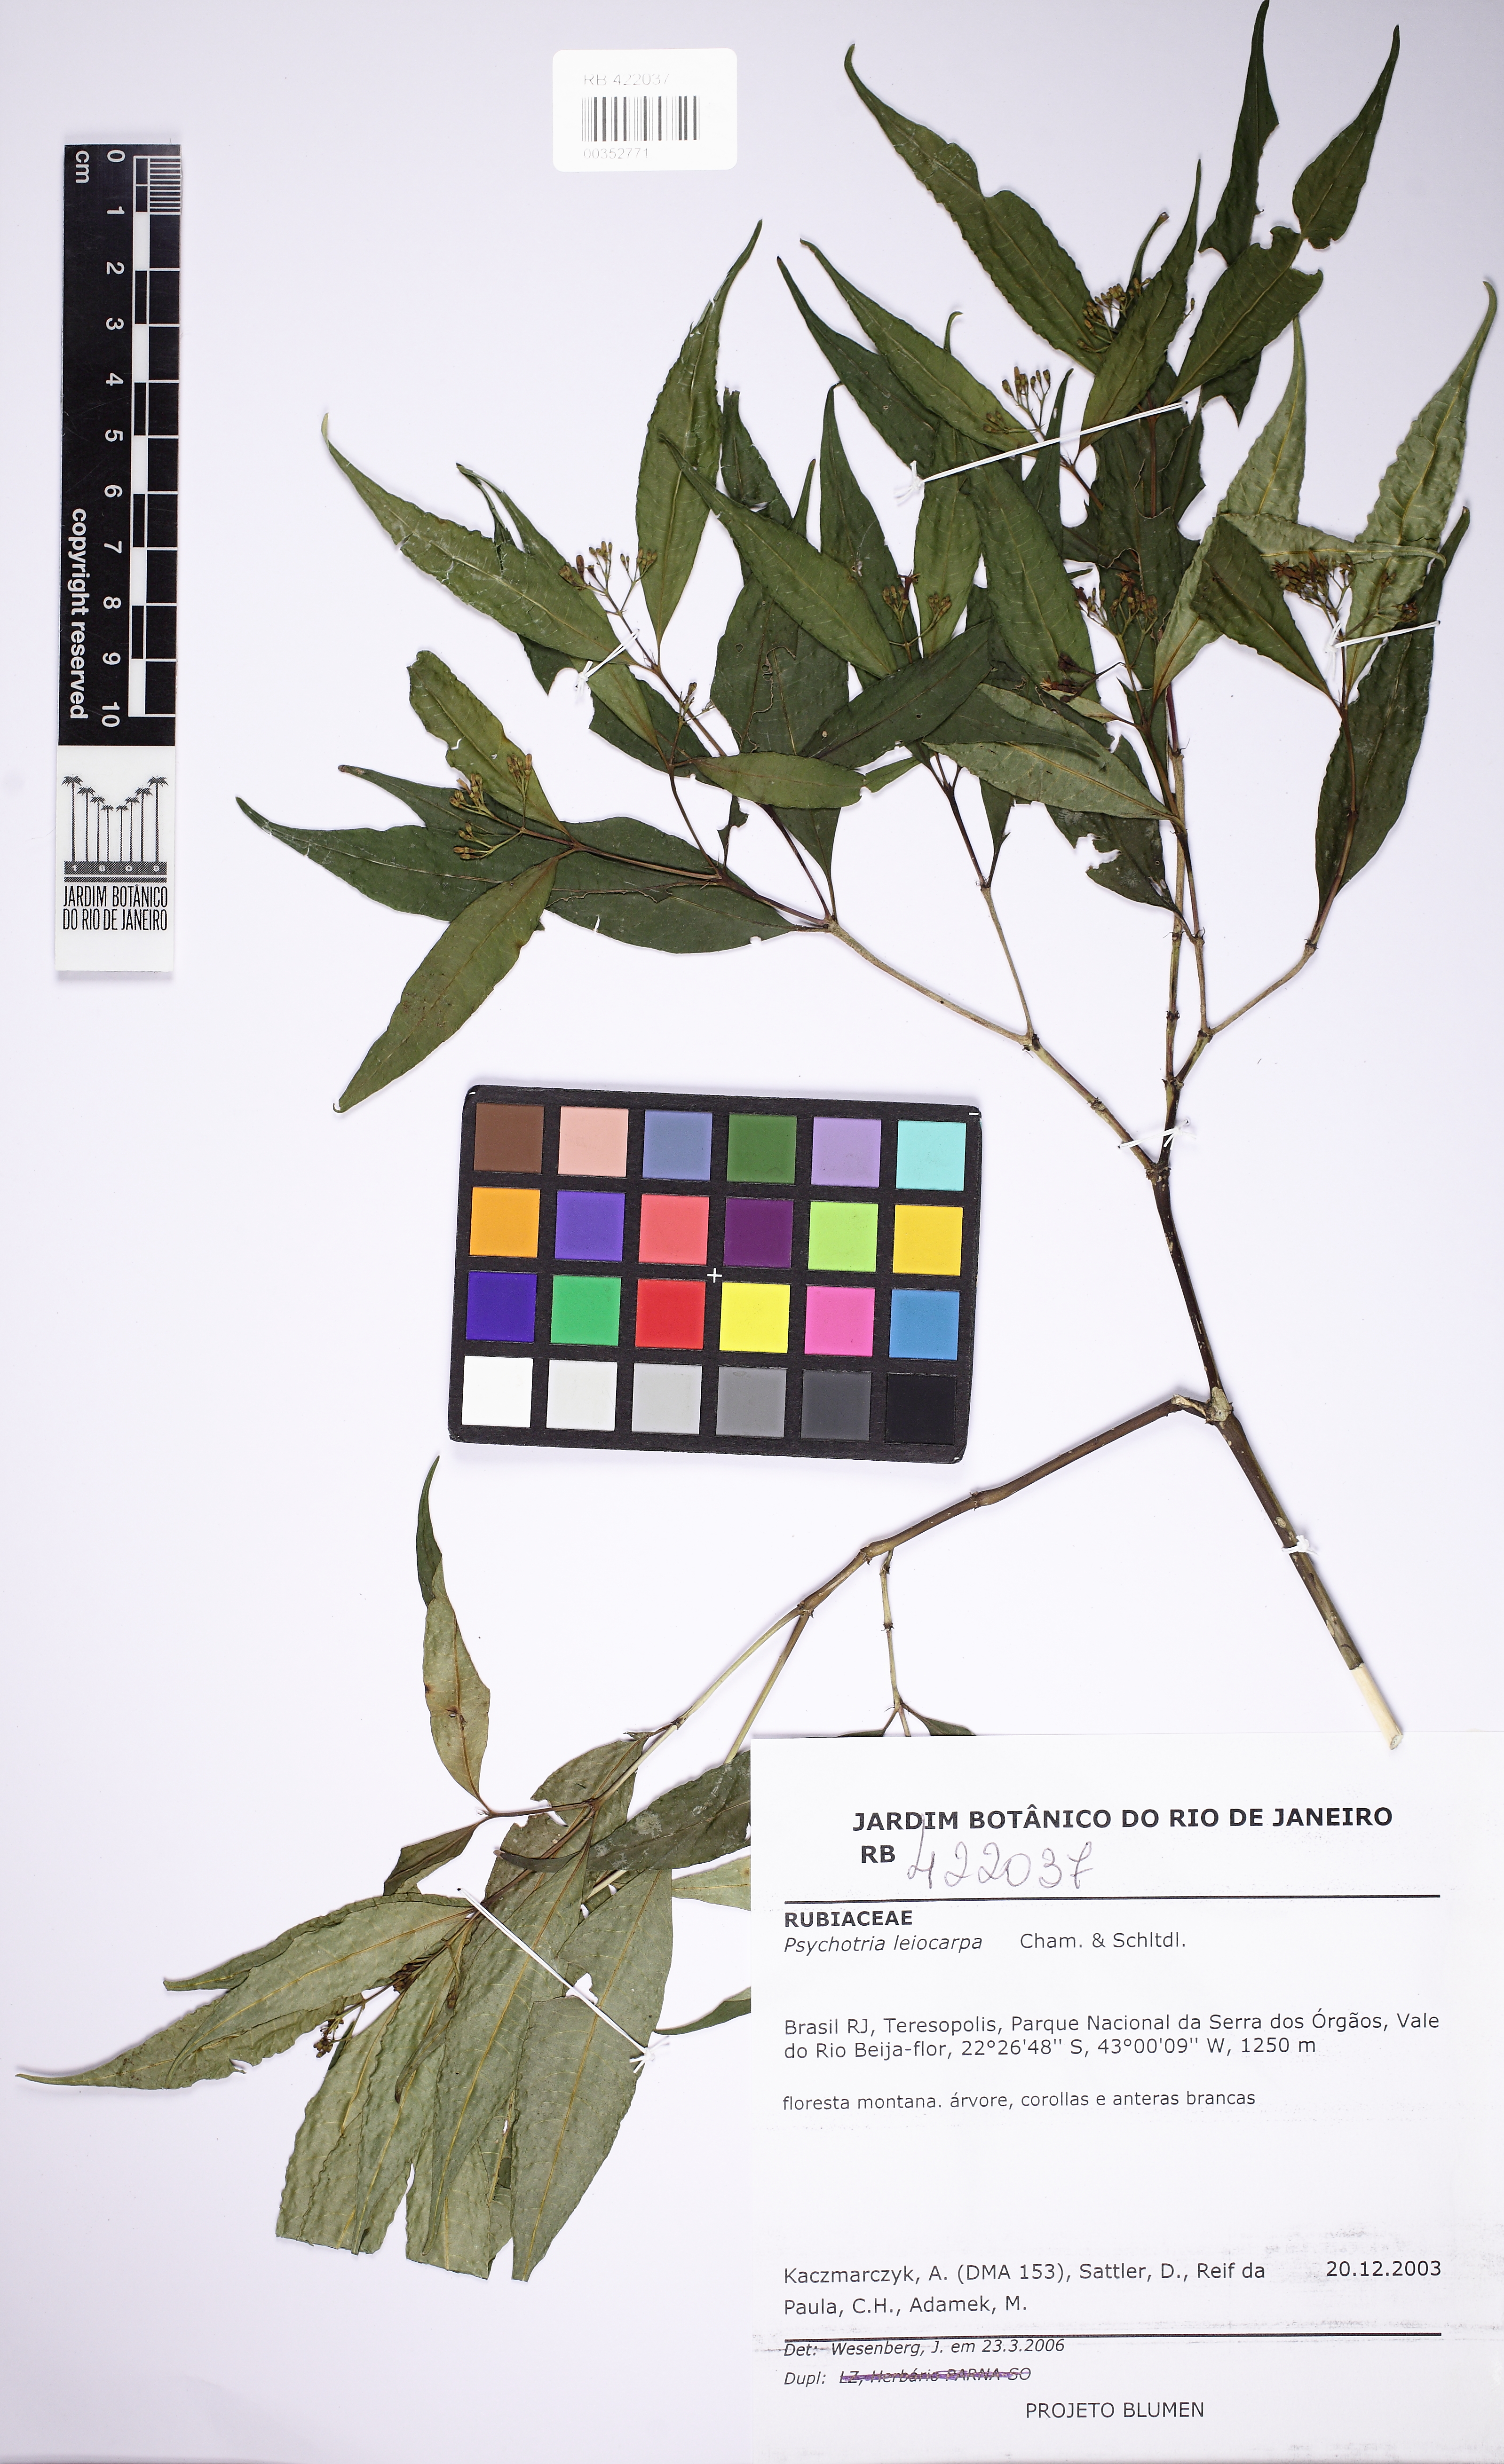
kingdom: Plantae
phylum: Tracheophyta
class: Magnoliopsida
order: Gentianales
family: Rubiaceae
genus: Psychotria
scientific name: Psychotria leiocarpa
